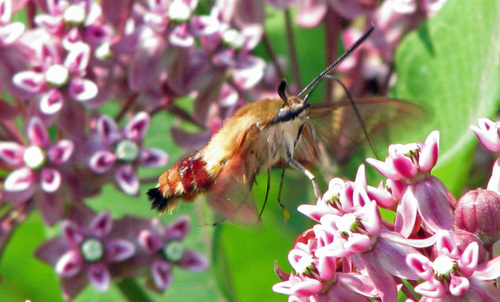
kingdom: Animalia
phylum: Arthropoda
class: Insecta
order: Lepidoptera
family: Sphingidae
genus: Hemaris
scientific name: Hemaris thysbe
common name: Common clear-wing
